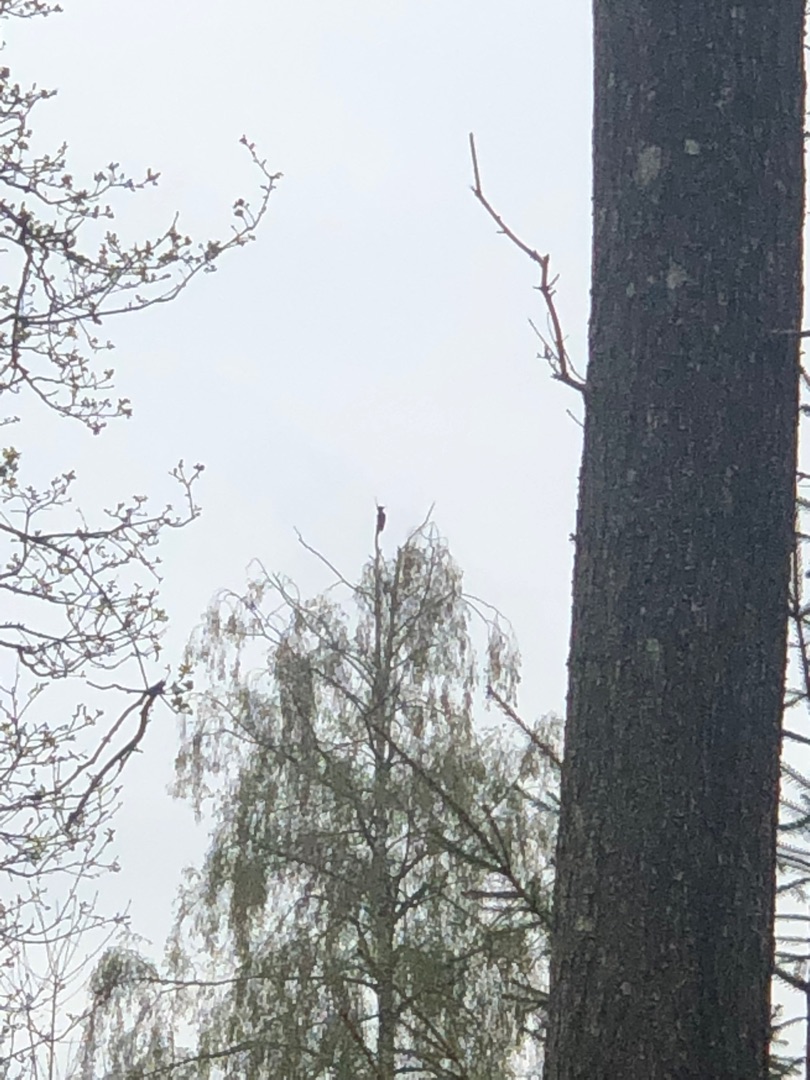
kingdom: Animalia
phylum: Chordata
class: Aves
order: Piciformes
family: Picidae
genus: Dryocopus
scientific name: Dryocopus martius
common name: Sortspætte
